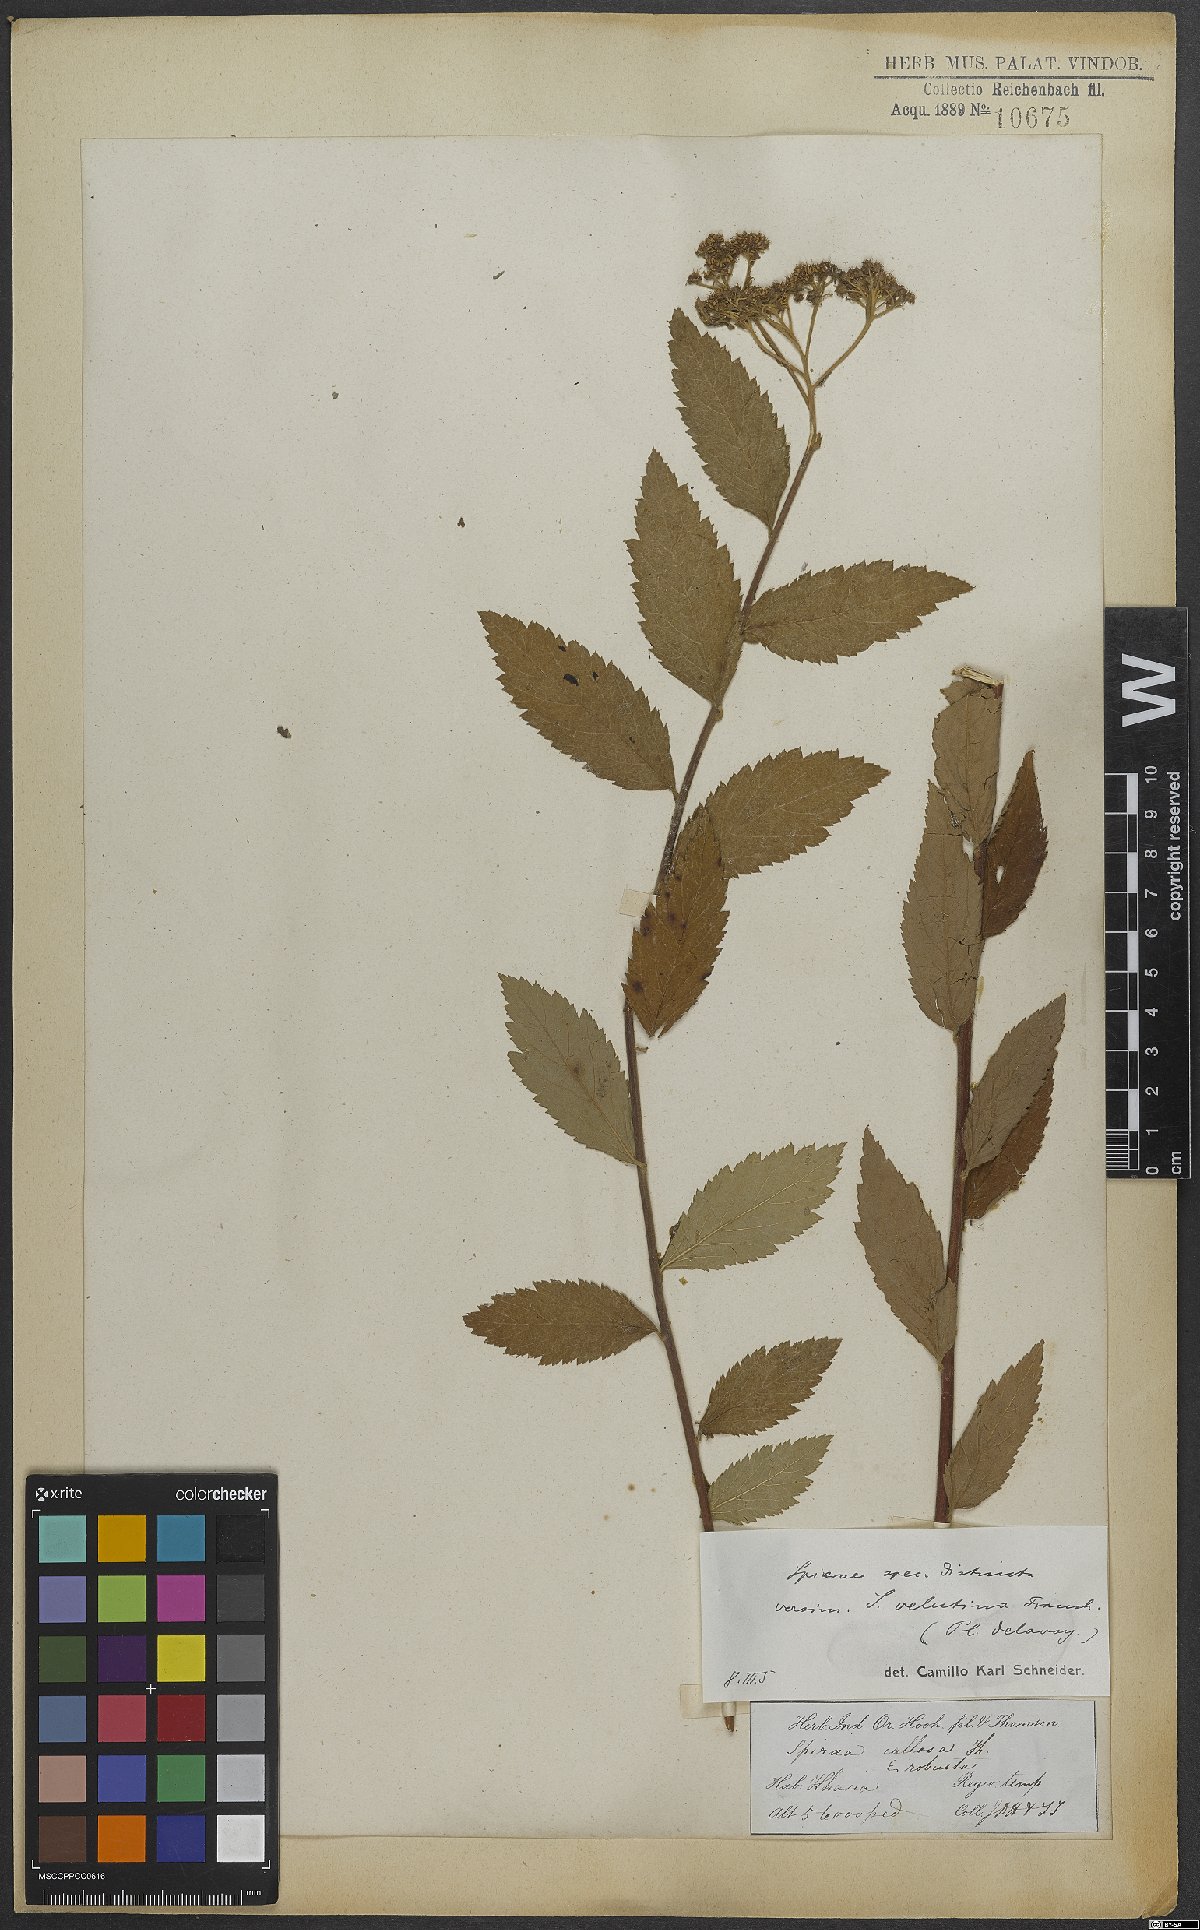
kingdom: Plantae
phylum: Tracheophyta
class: Magnoliopsida
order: Rosales
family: Rosaceae
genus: Spiraea
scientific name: Spiraea robusta
